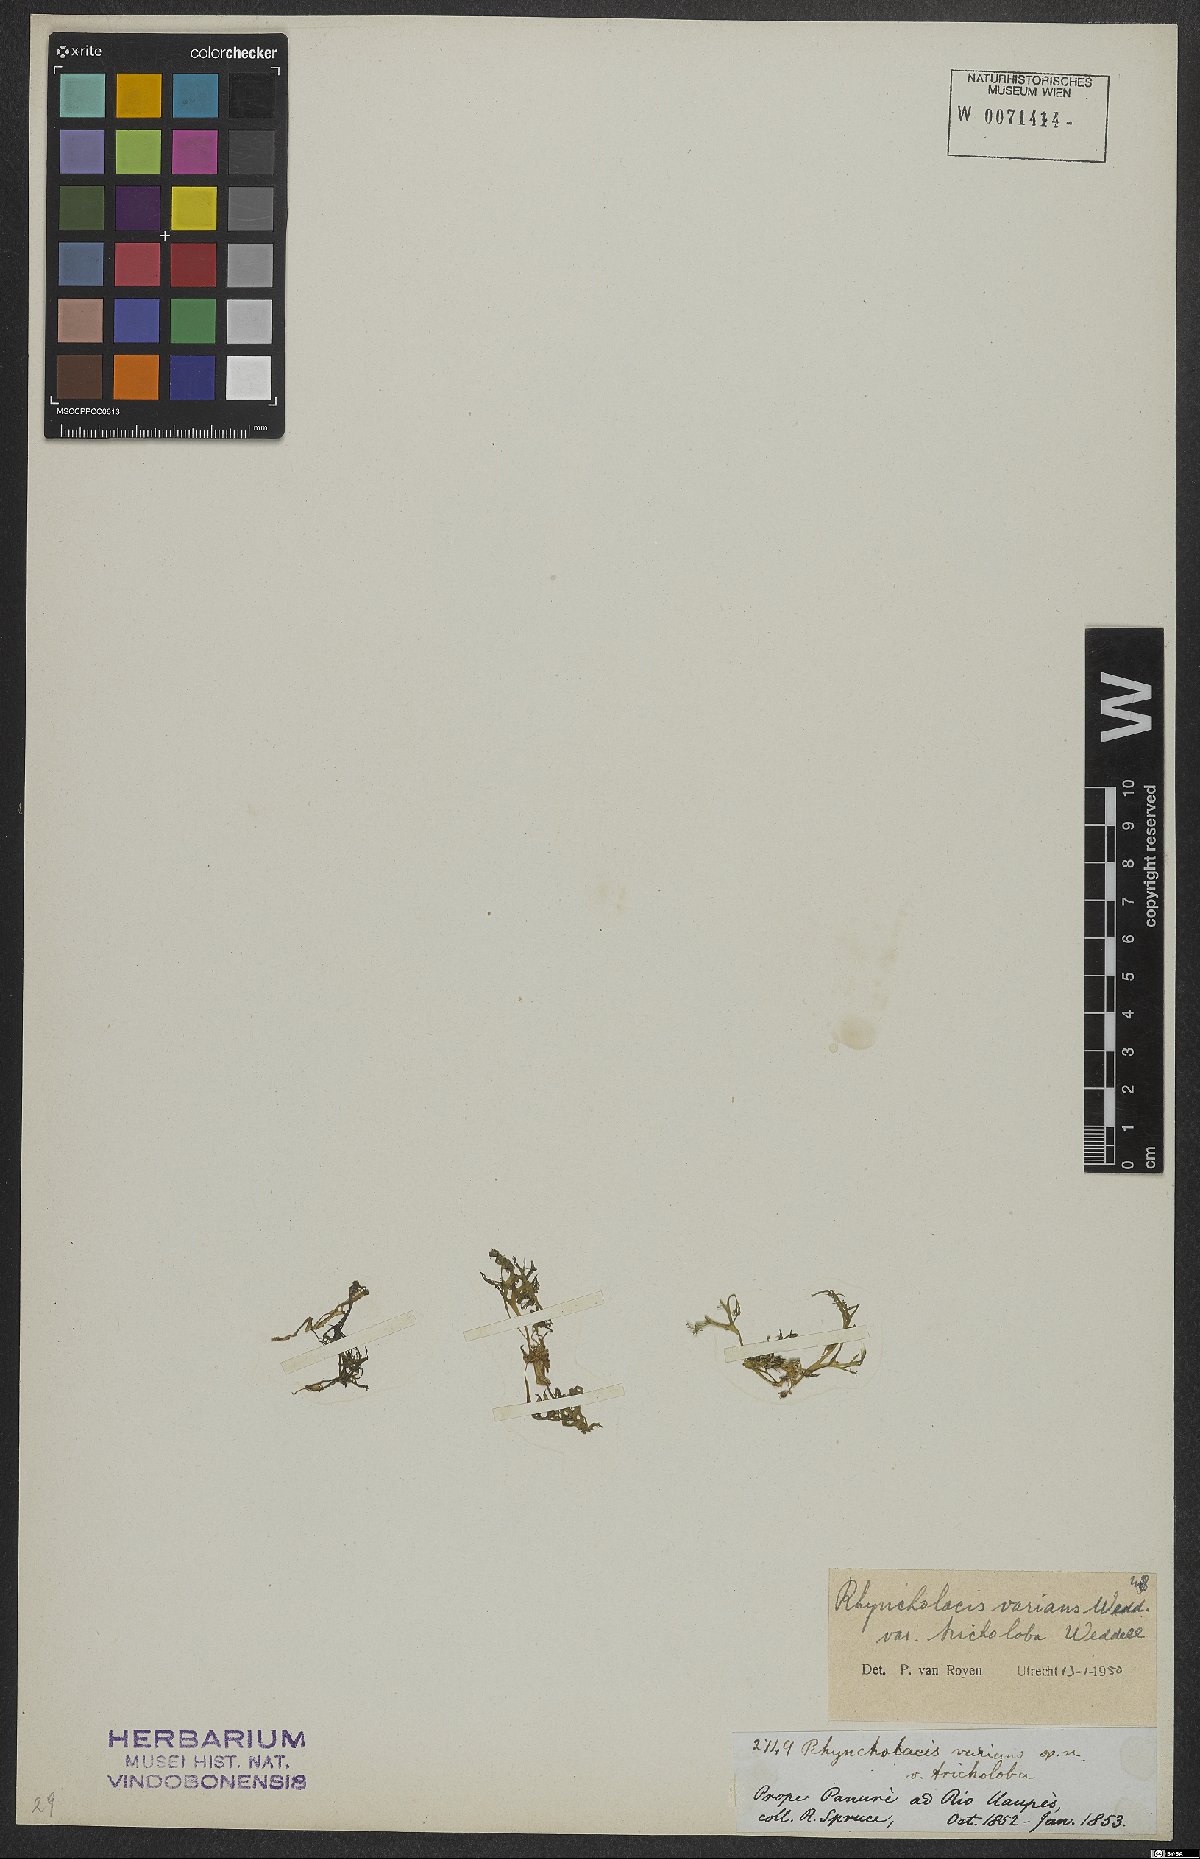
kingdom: Plantae
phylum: Tracheophyta
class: Magnoliopsida
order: Malpighiales
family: Podostemaceae
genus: Rhyncholacis
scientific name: Rhyncholacis varians
